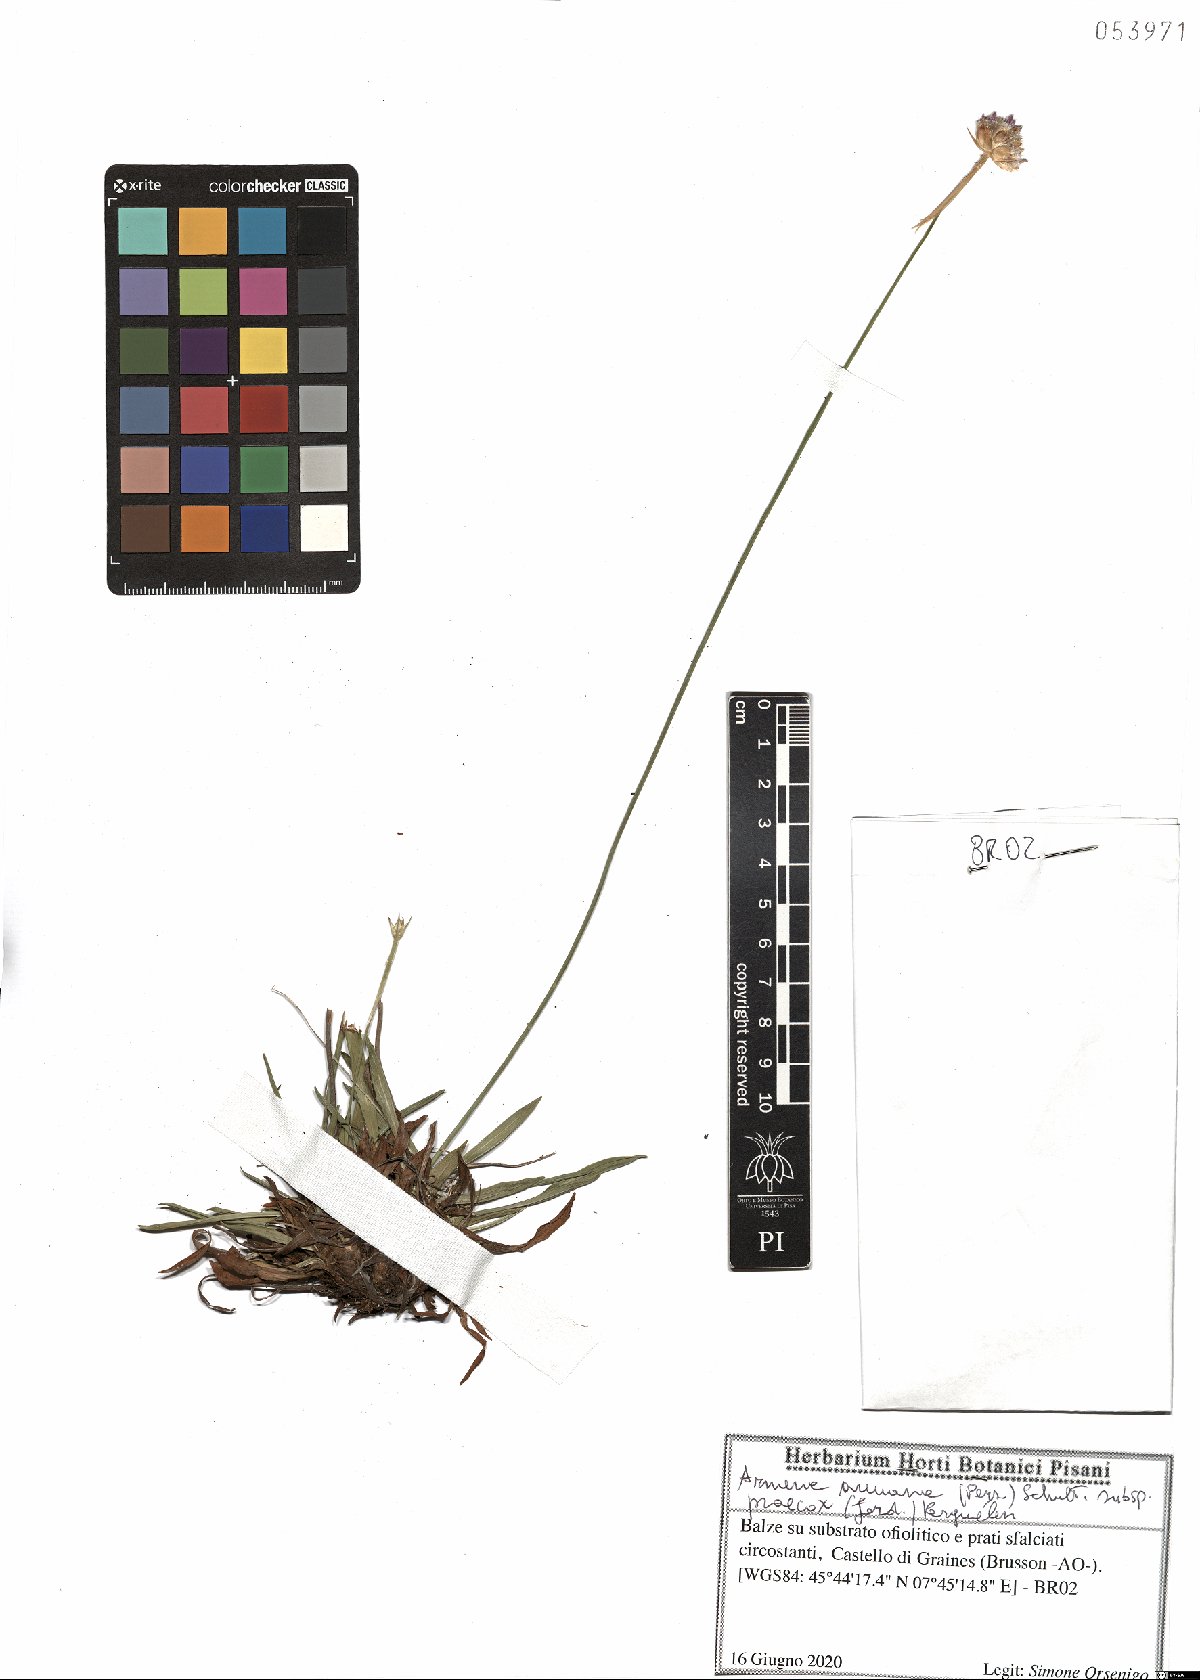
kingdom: Plantae
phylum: Tracheophyta
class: Magnoliopsida
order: Caryophyllales
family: Plumbaginaceae
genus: Armeria
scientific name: Armeria arenaria
